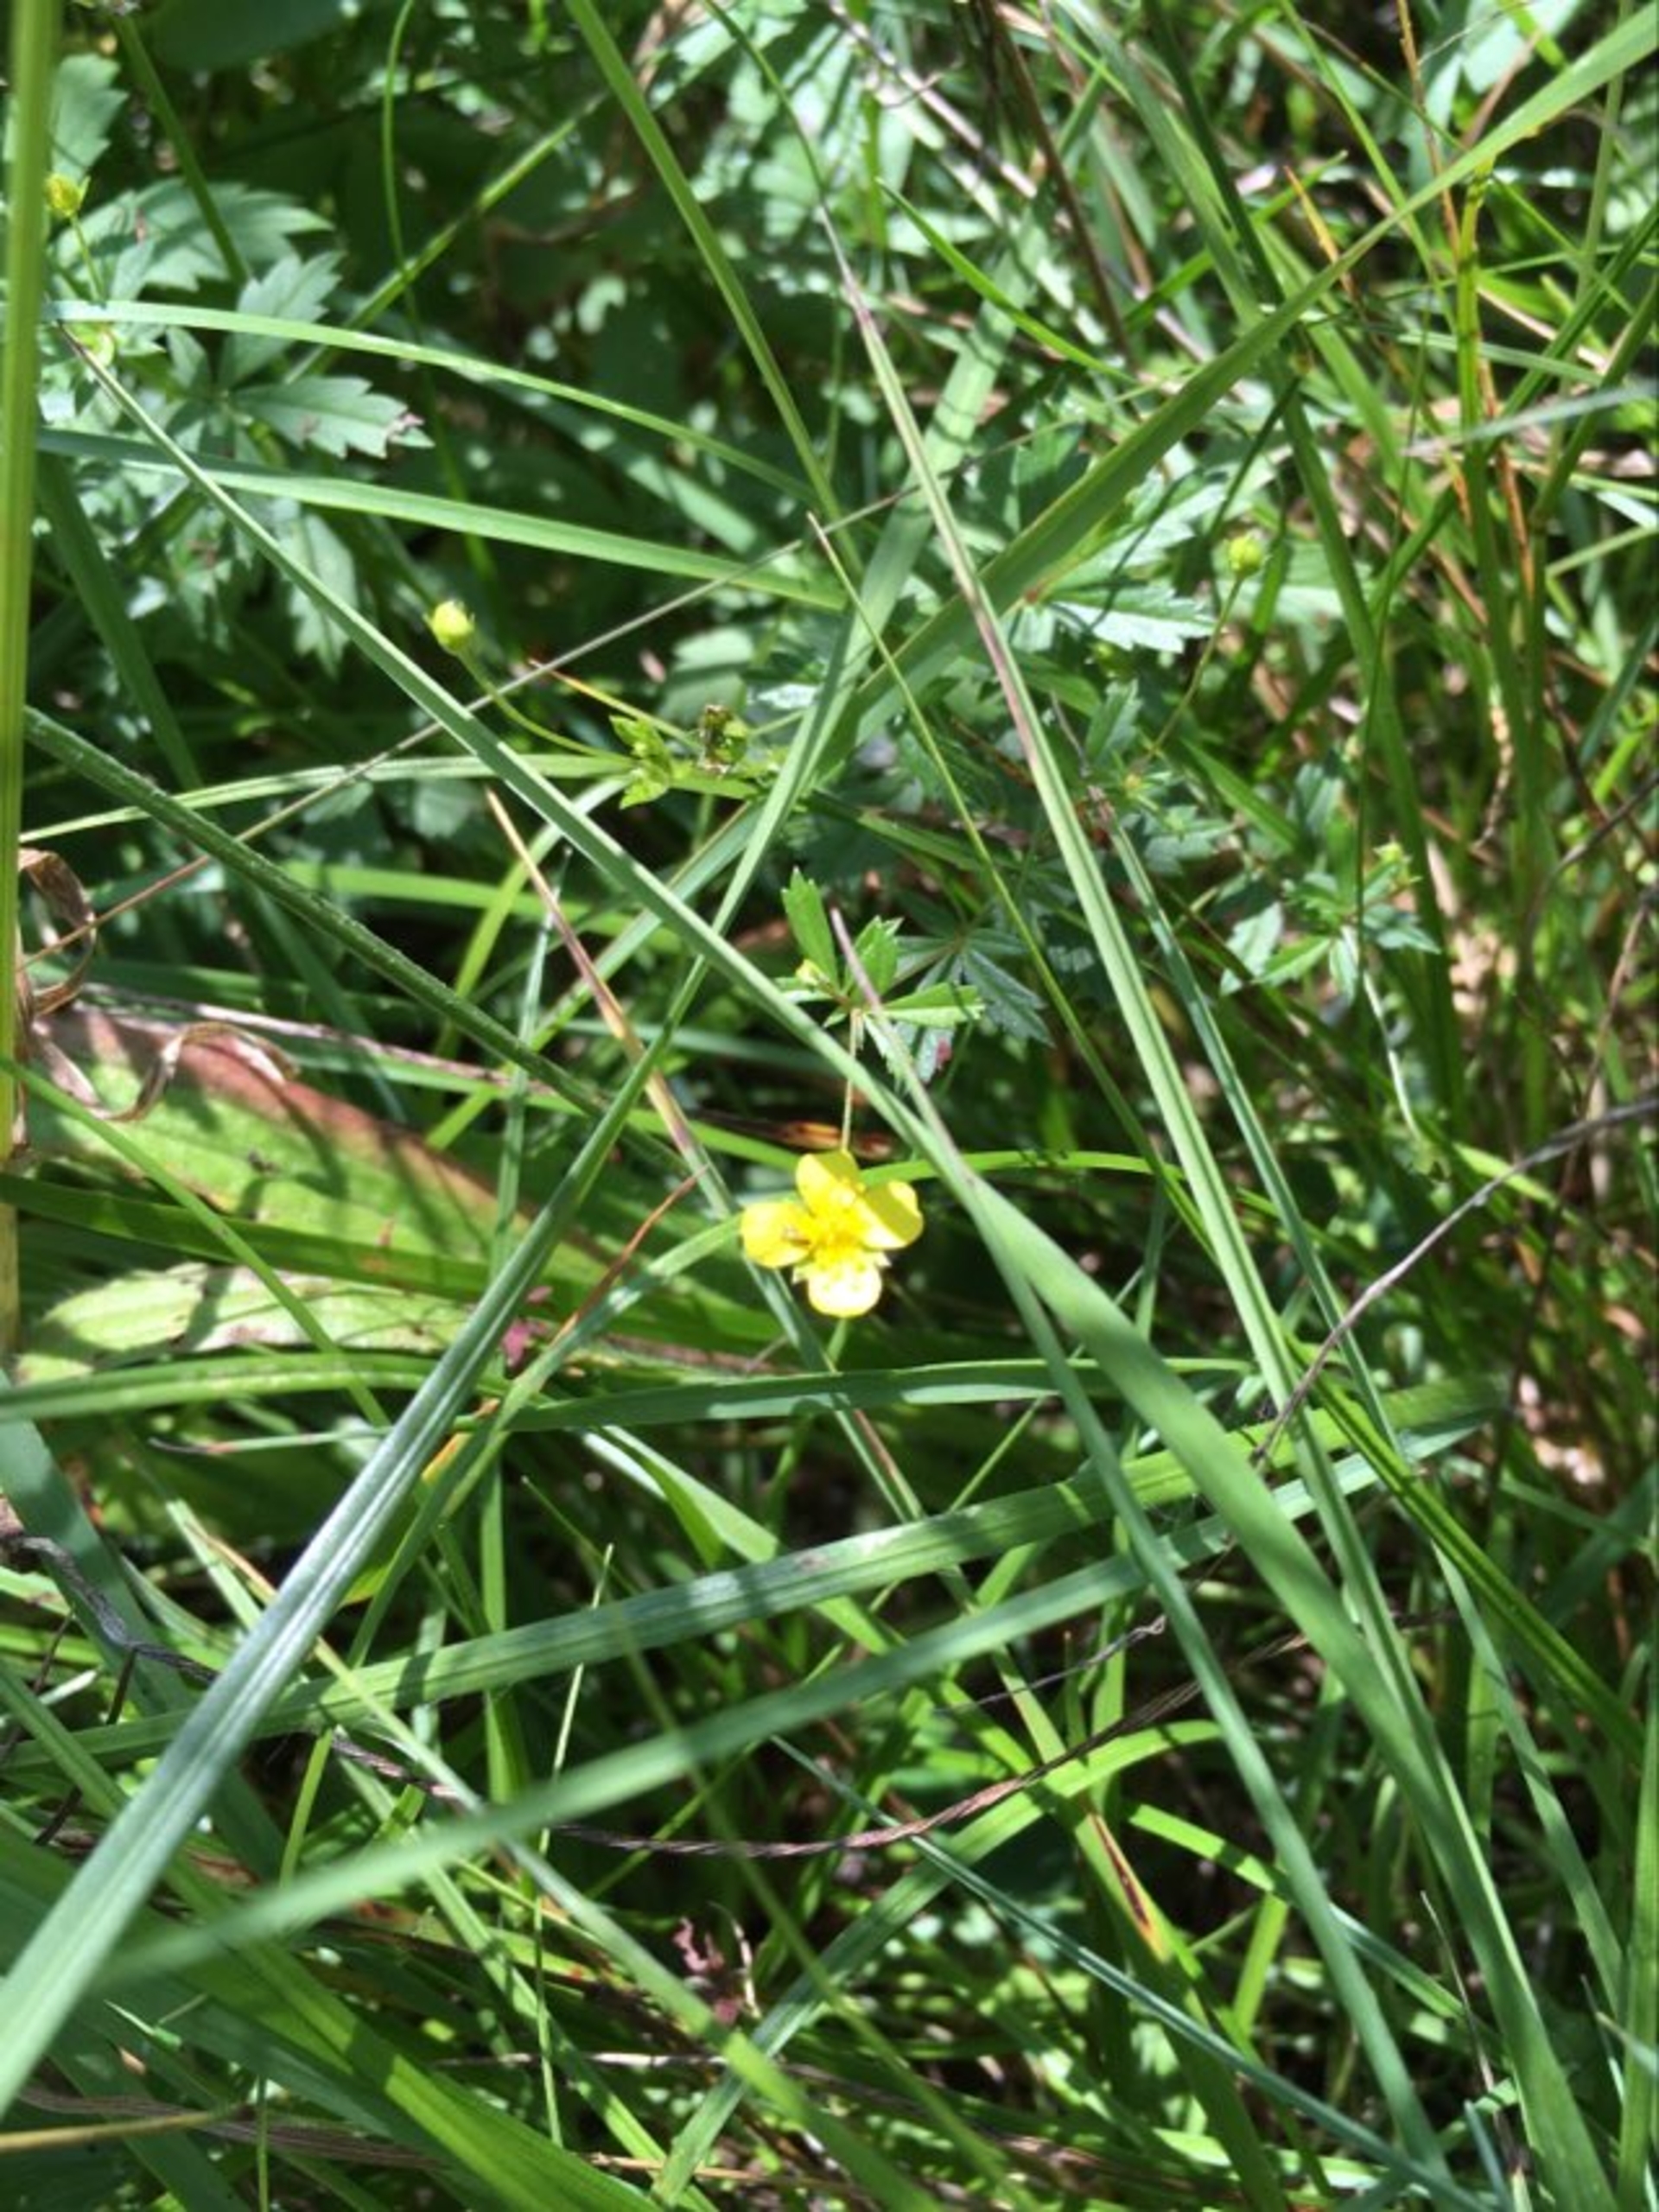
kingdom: Plantae
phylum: Tracheophyta
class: Magnoliopsida
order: Rosales
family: Rosaceae
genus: Potentilla
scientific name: Potentilla erecta
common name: Tormentil
